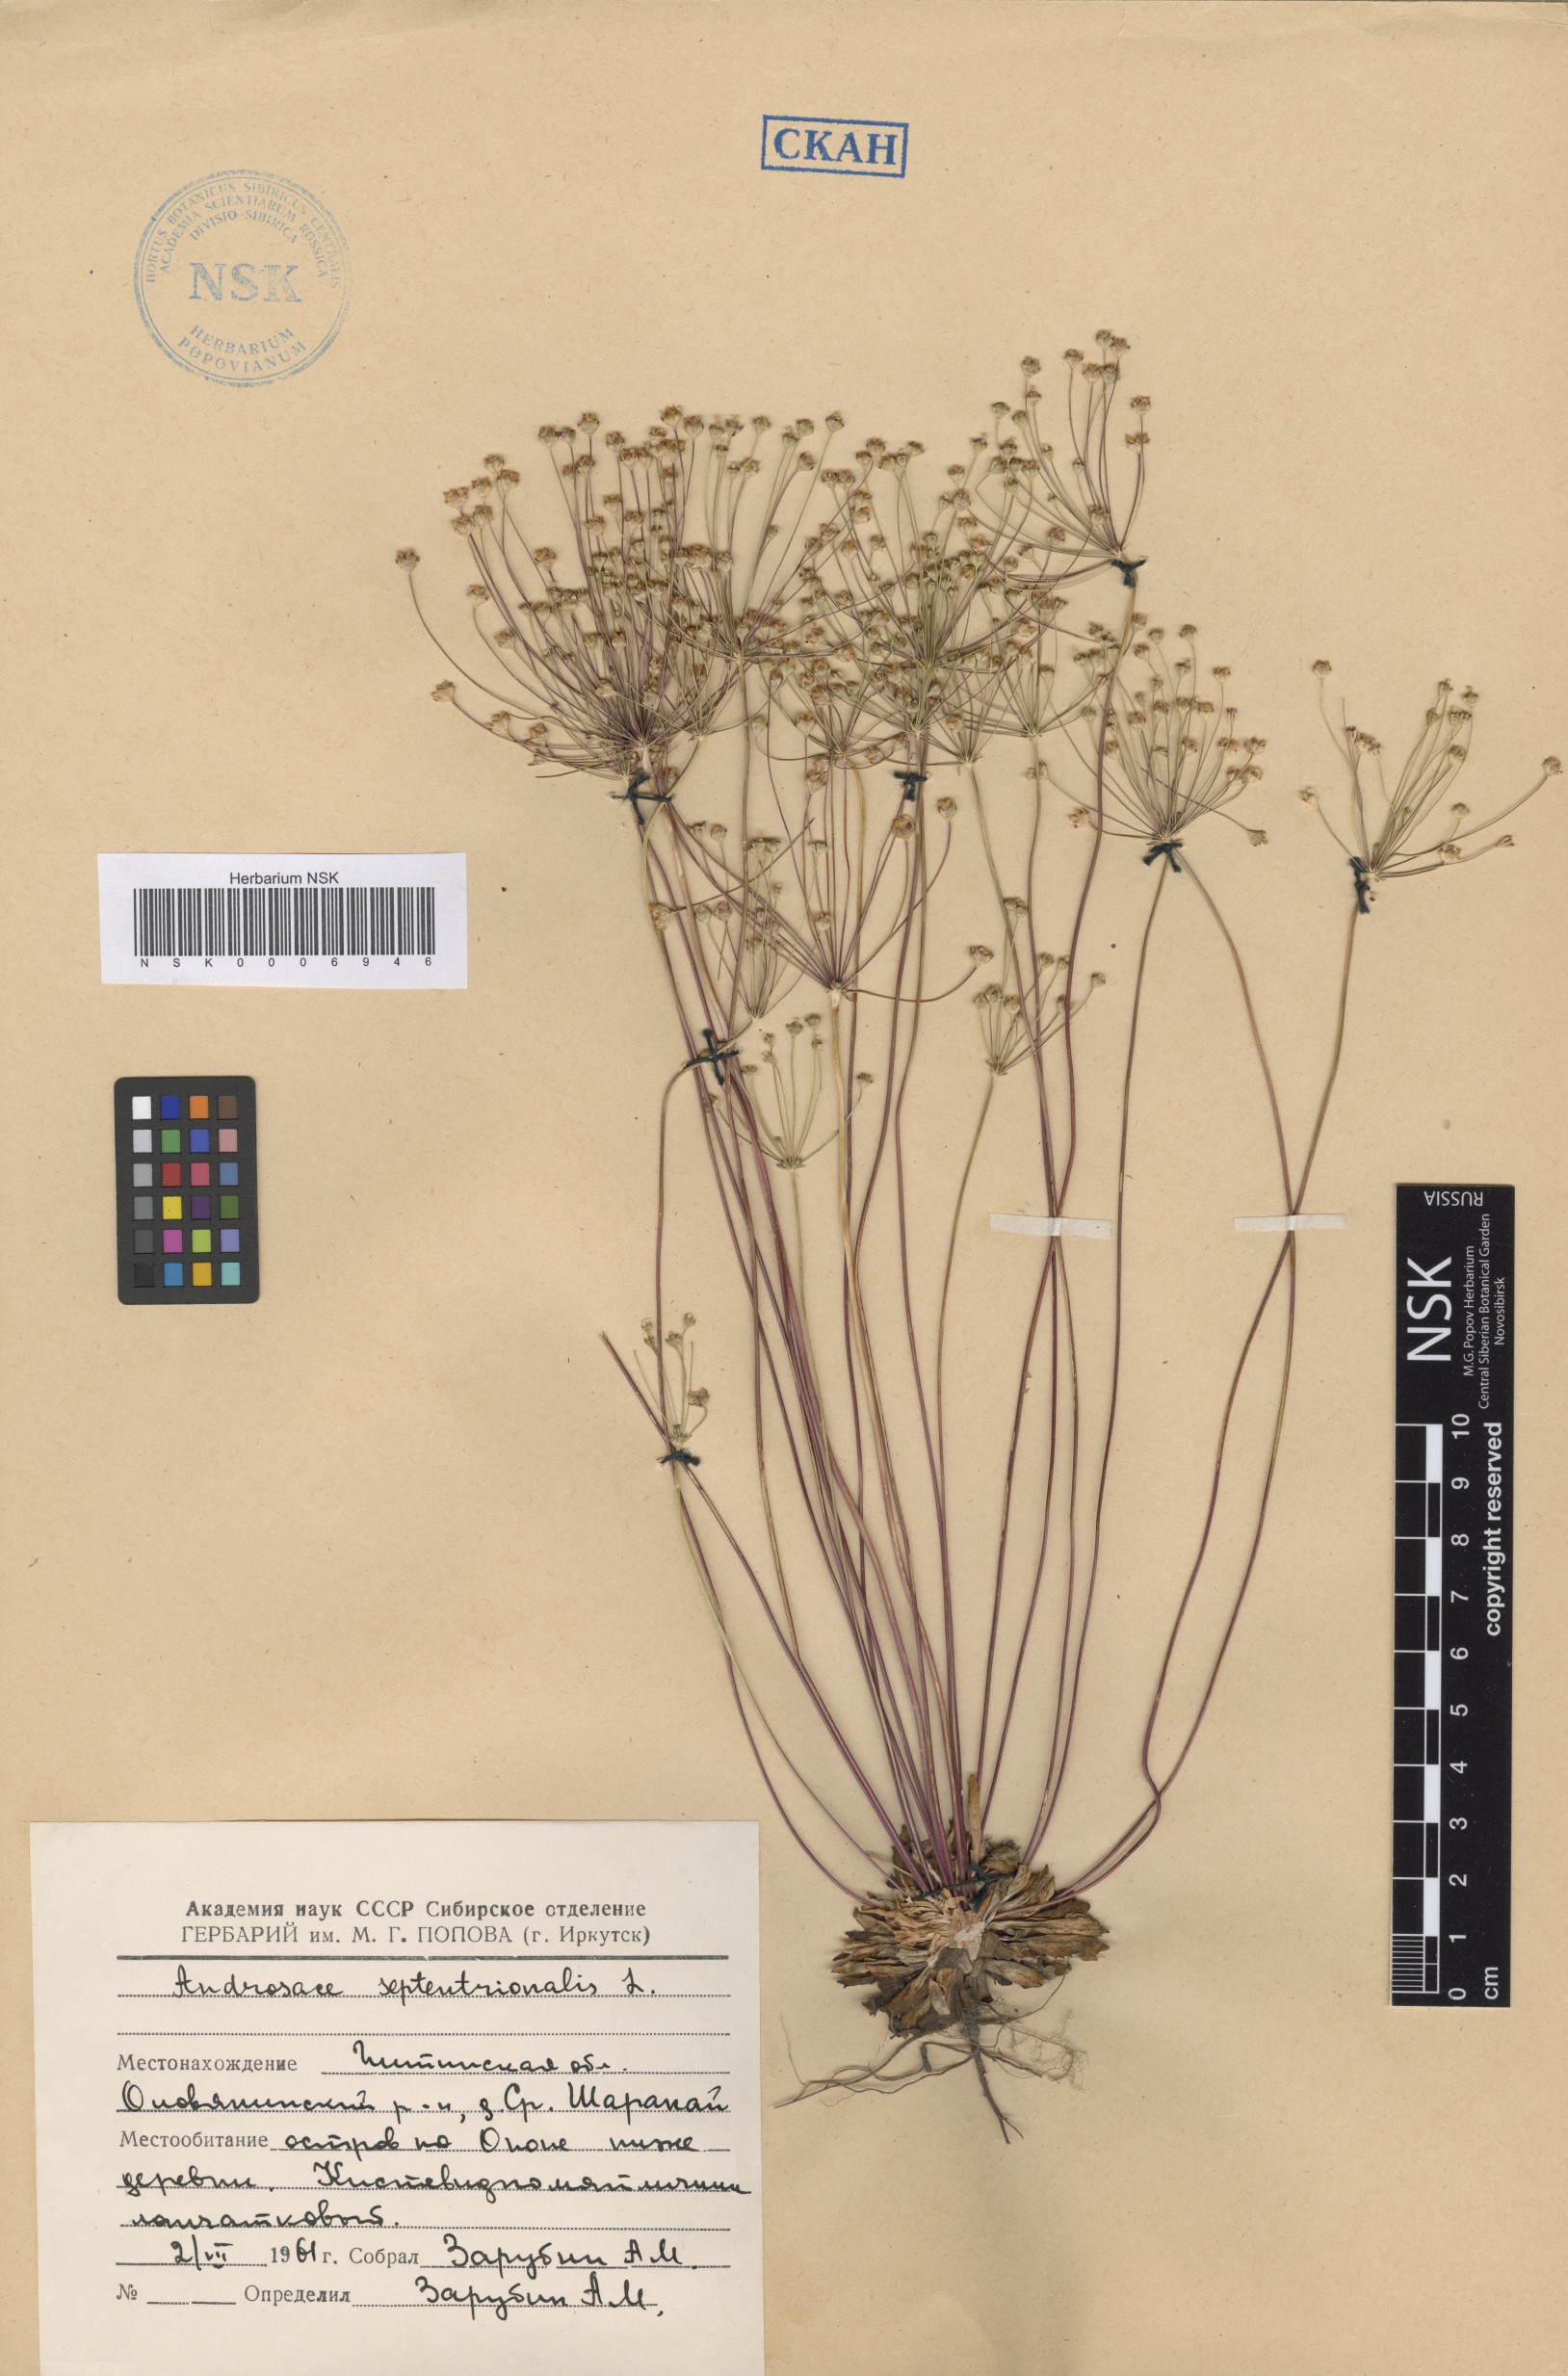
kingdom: Plantae
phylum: Tracheophyta
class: Magnoliopsida
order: Ericales
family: Primulaceae
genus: Androsace
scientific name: Androsace septentrionalis
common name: Hairy northern fairy-candelabra
